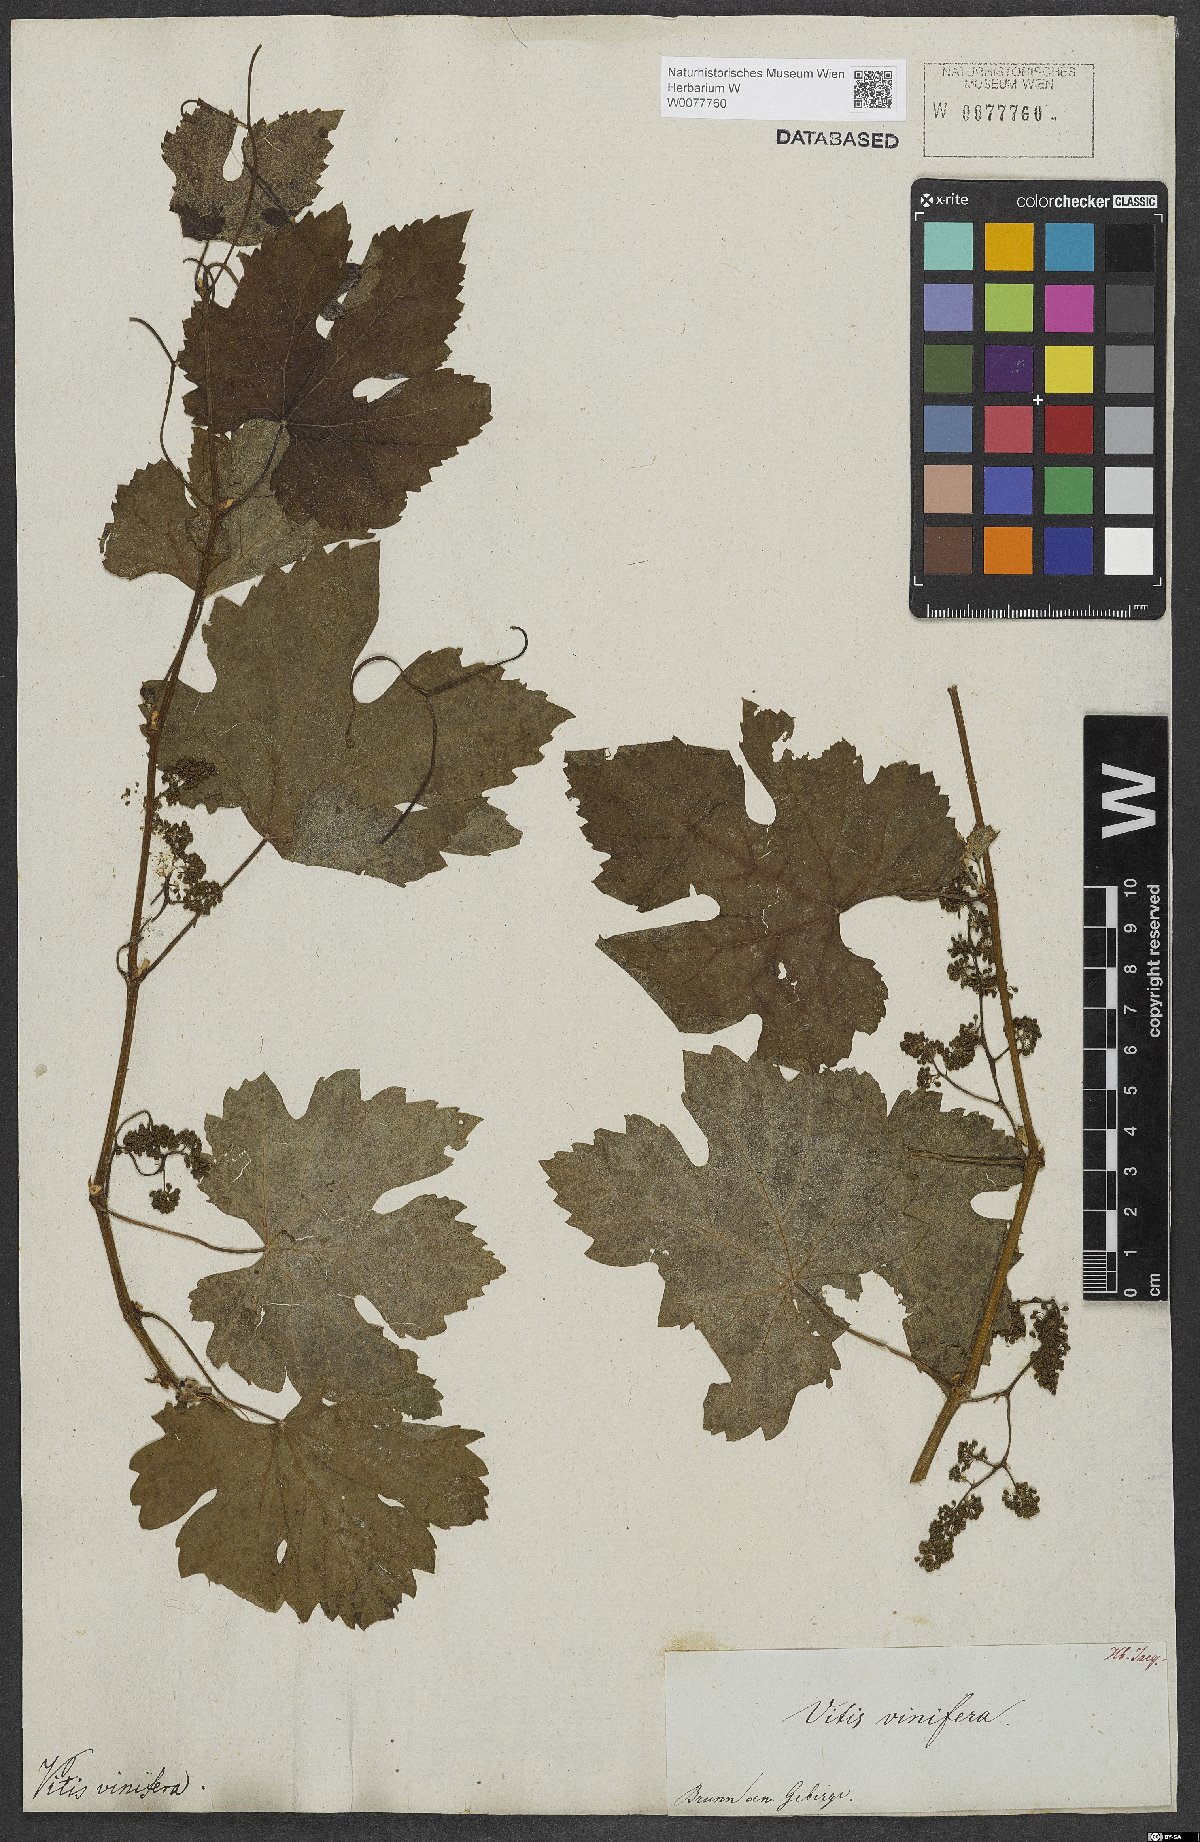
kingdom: Plantae
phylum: Tracheophyta
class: Magnoliopsida
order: Vitales
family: Vitaceae
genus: Vitis
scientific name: Vitis vinifera
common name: Grape-vine
